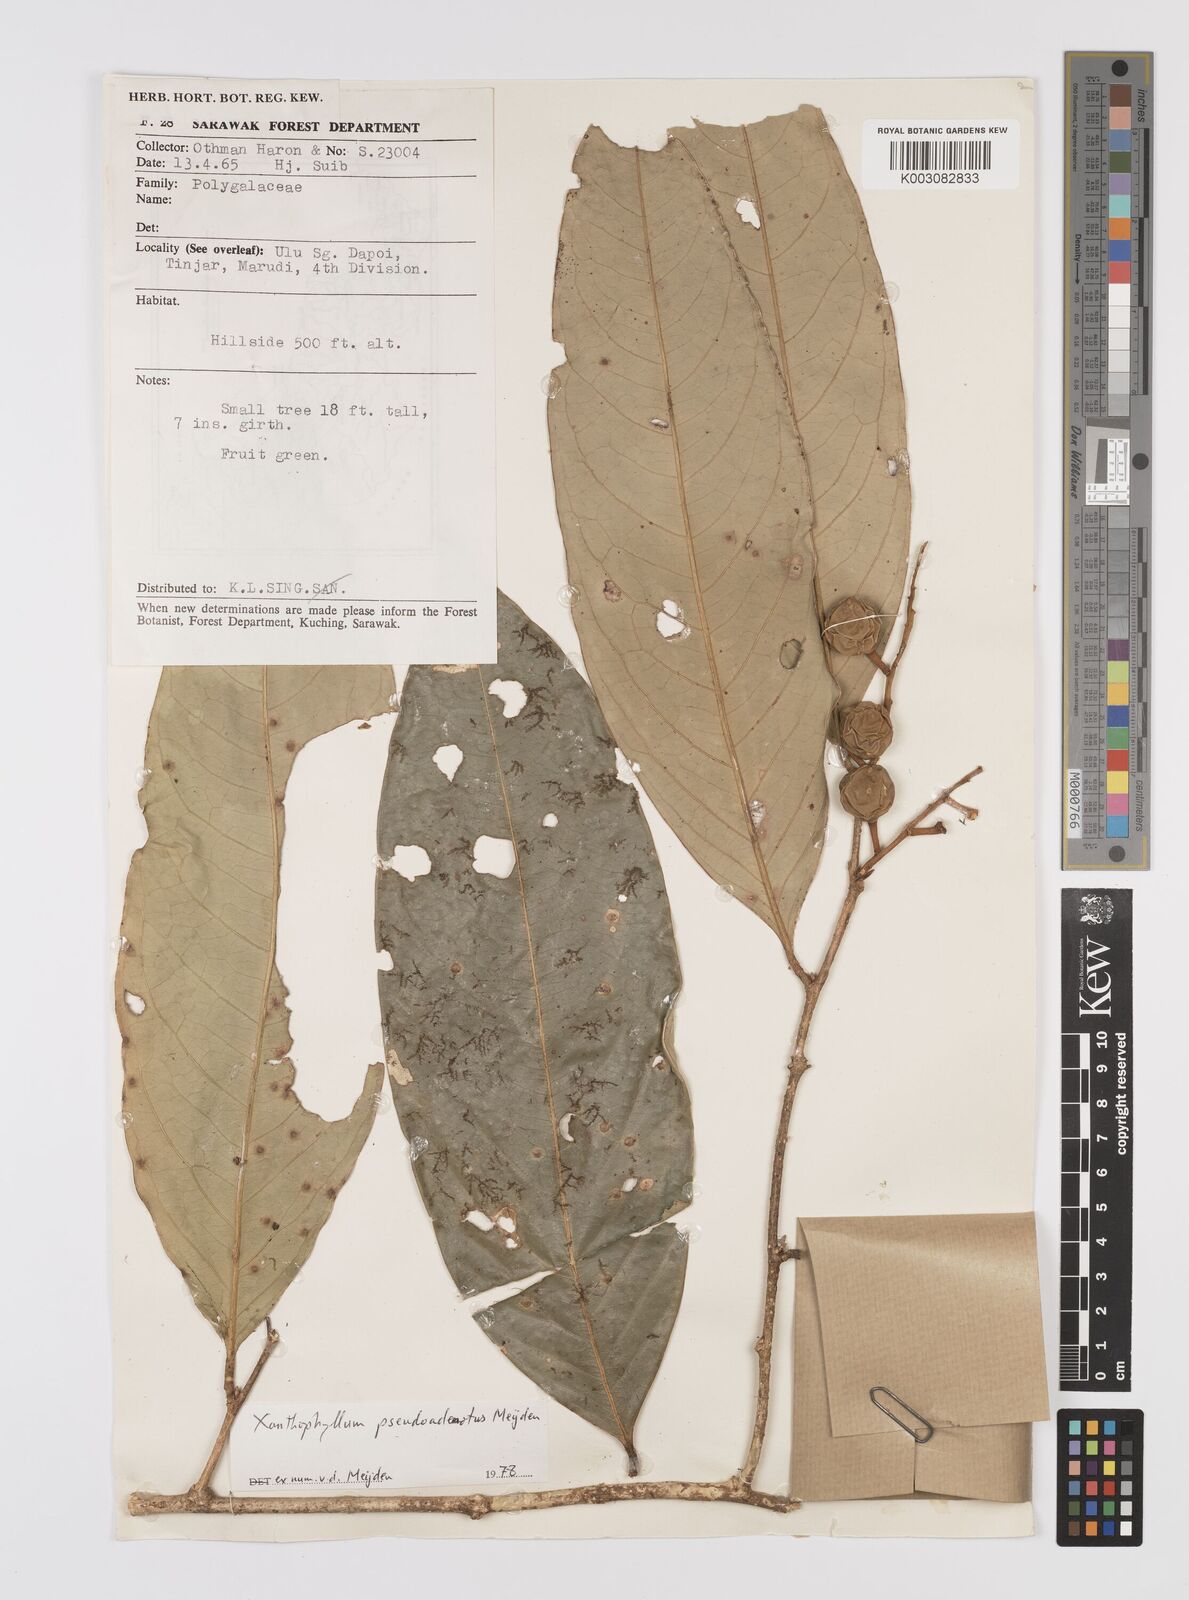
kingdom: Plantae
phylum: Tracheophyta
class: Magnoliopsida
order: Fabales
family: Polygalaceae
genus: Xanthophyllum
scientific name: Xanthophyllum pseudoadenotus
